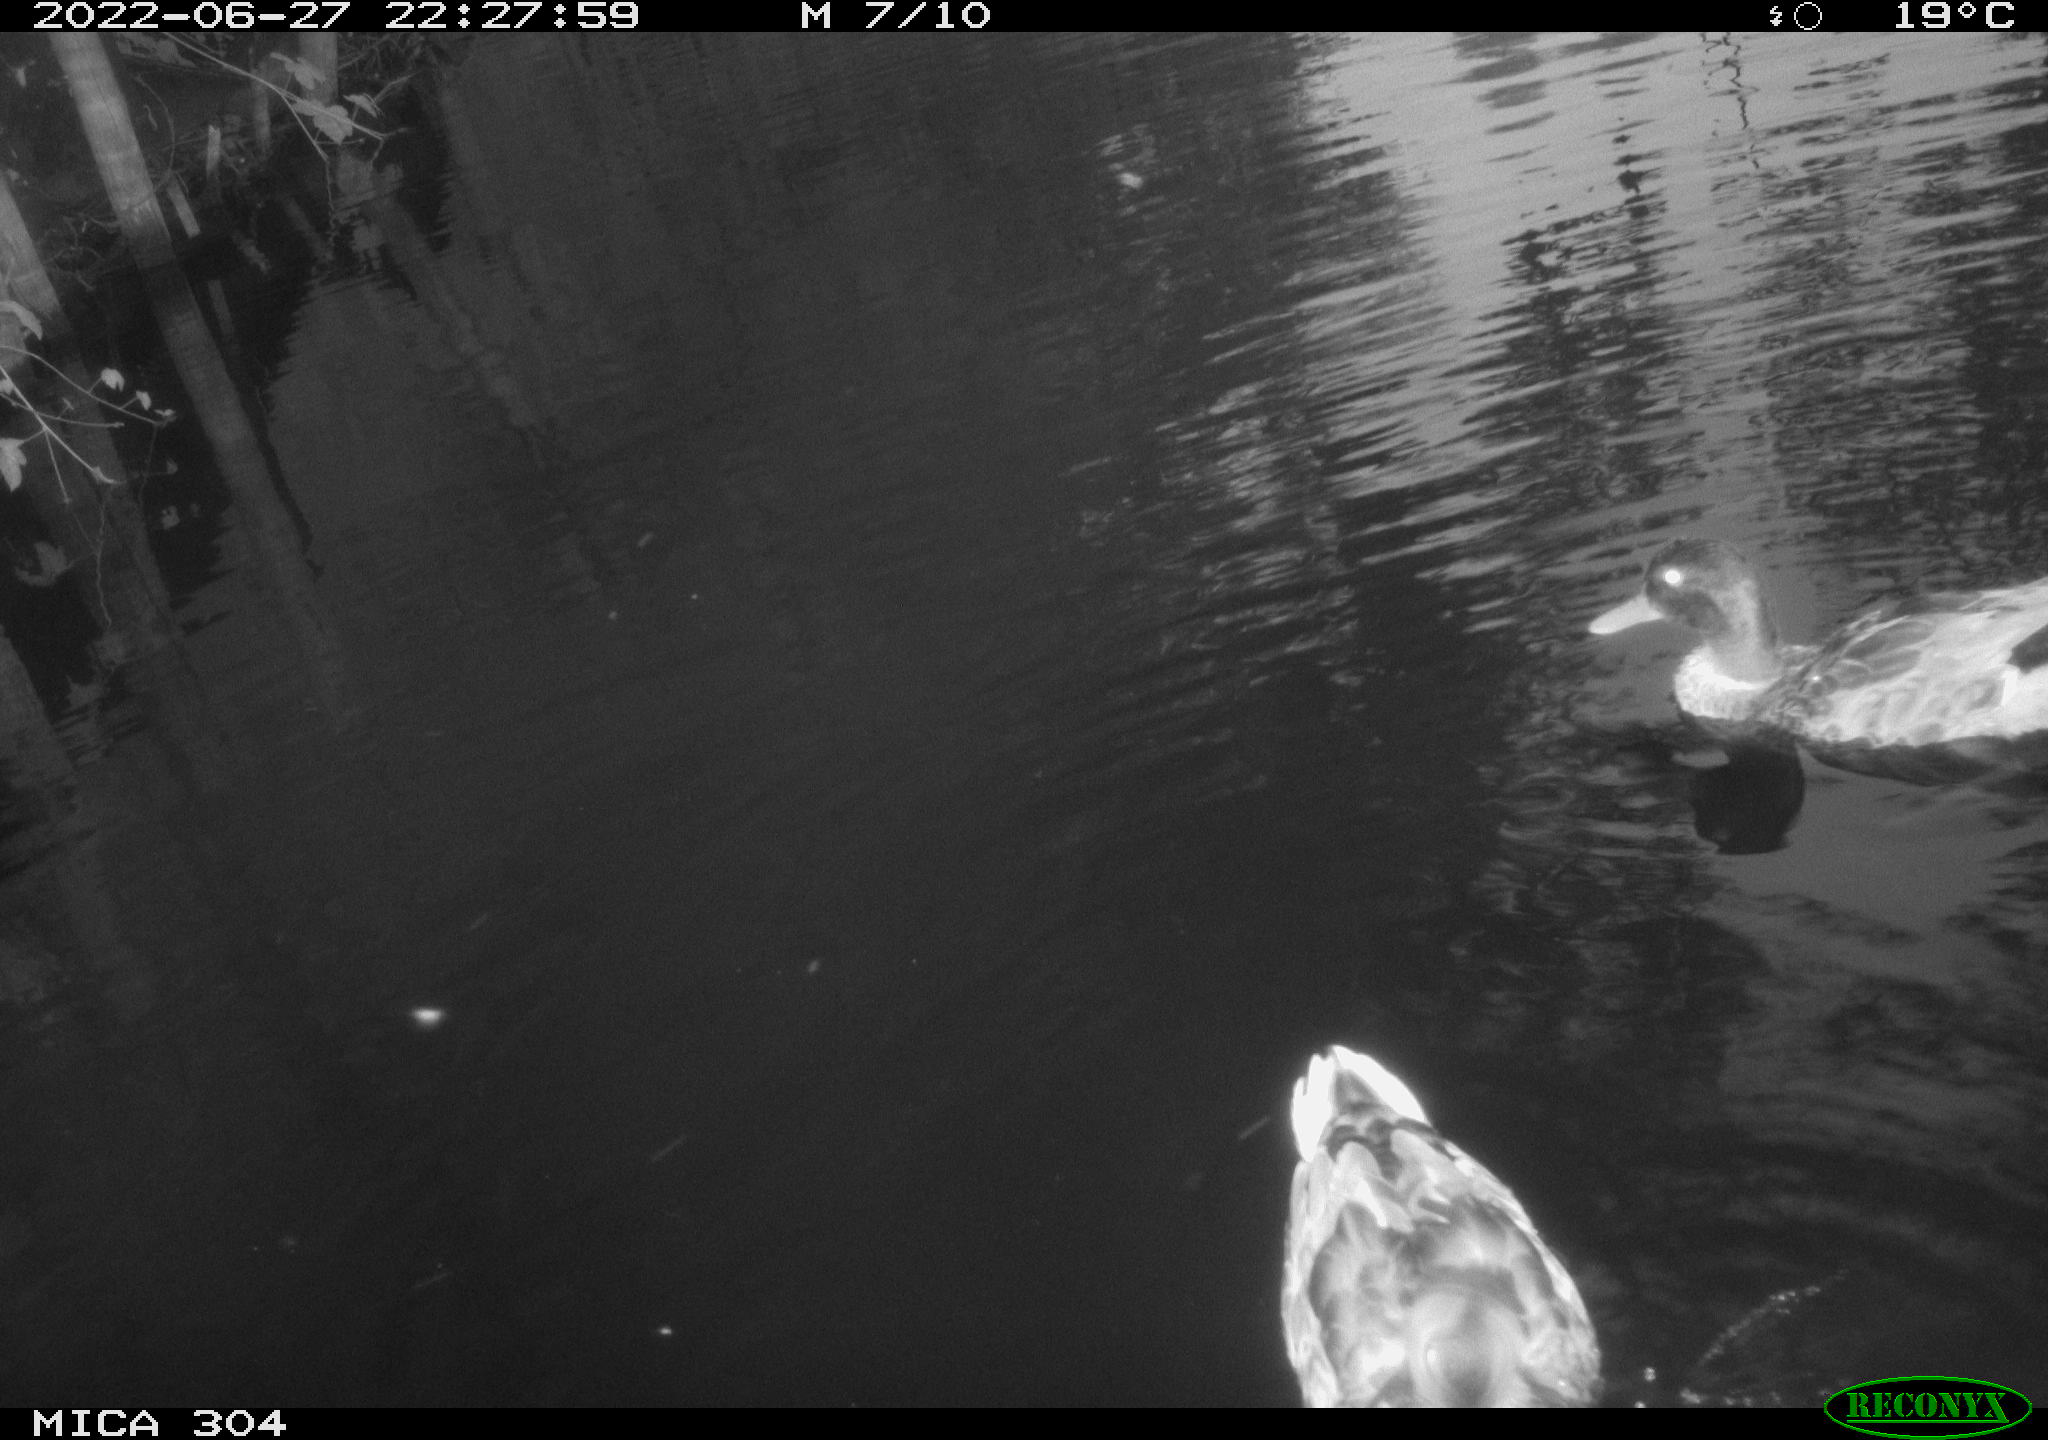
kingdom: Animalia
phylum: Chordata
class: Aves
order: Anseriformes
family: Anatidae
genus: Anas
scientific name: Anas platyrhynchos
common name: Mallard
